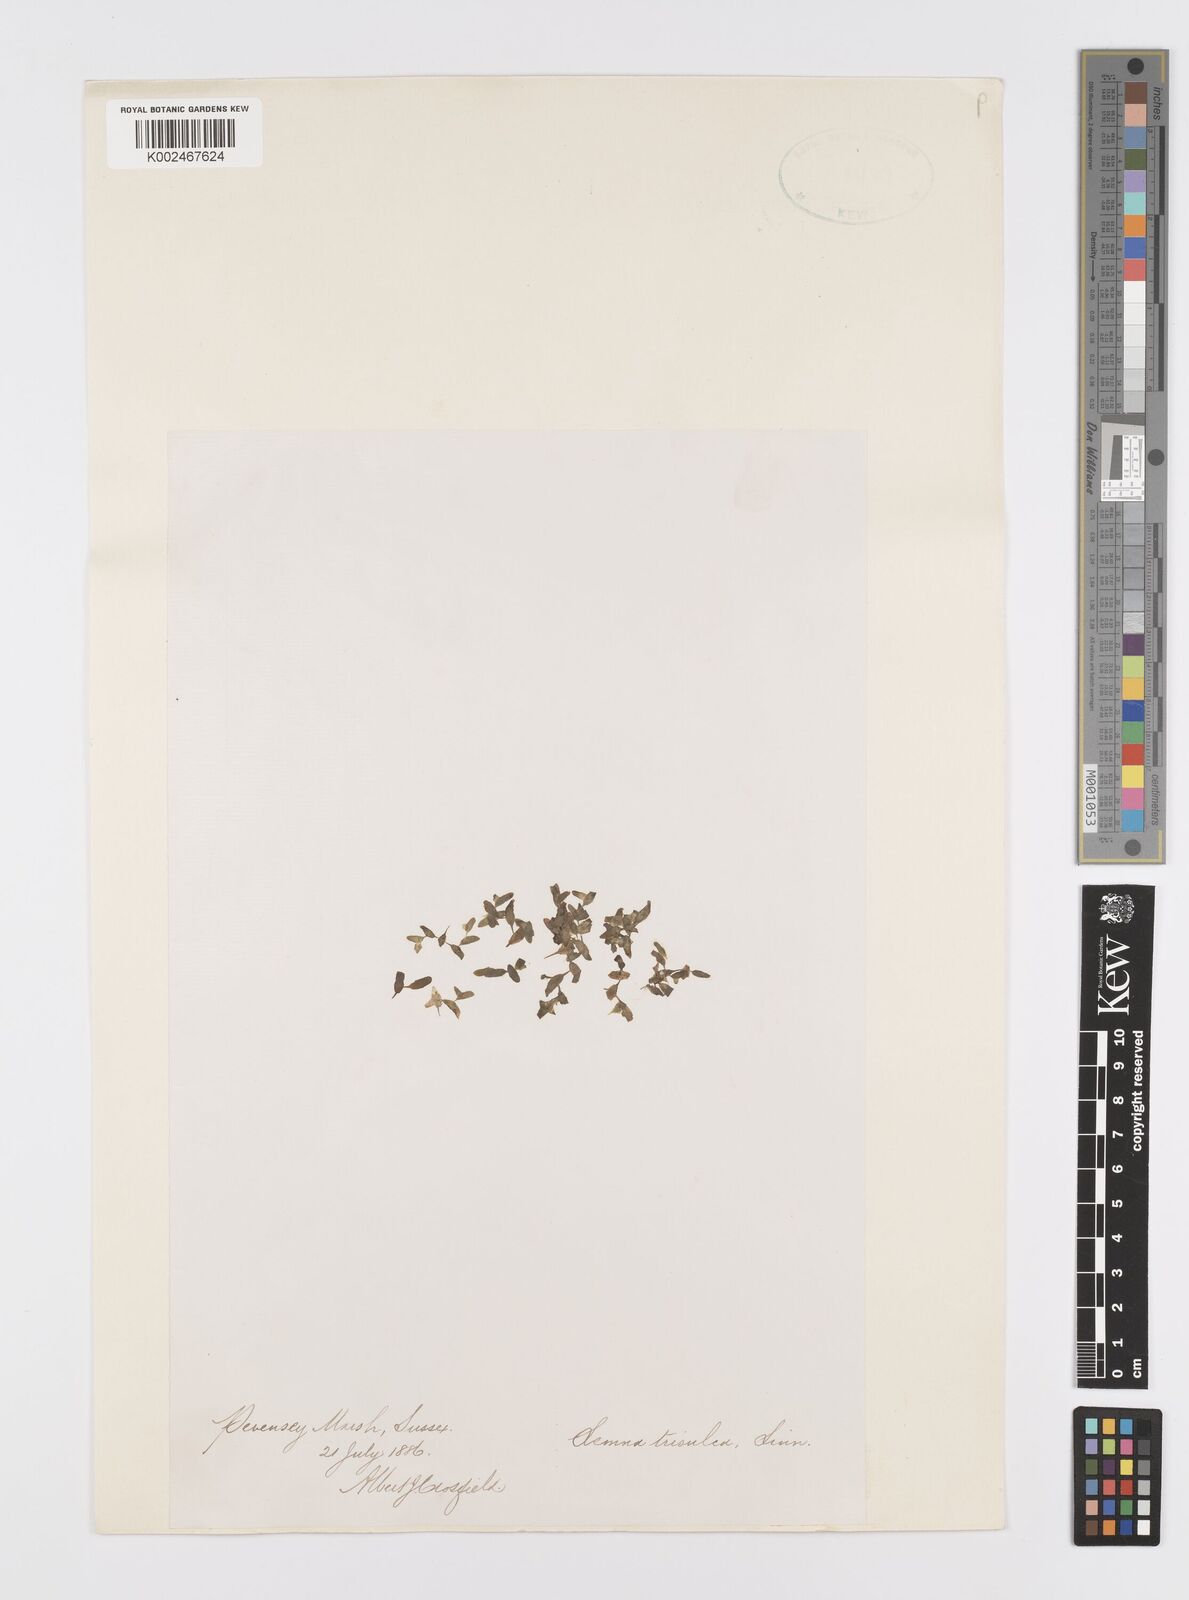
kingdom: Plantae
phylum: Tracheophyta
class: Liliopsida
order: Alismatales
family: Araceae
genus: Lemna
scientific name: Lemna trisulca
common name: Ivy-leaved duckweed
